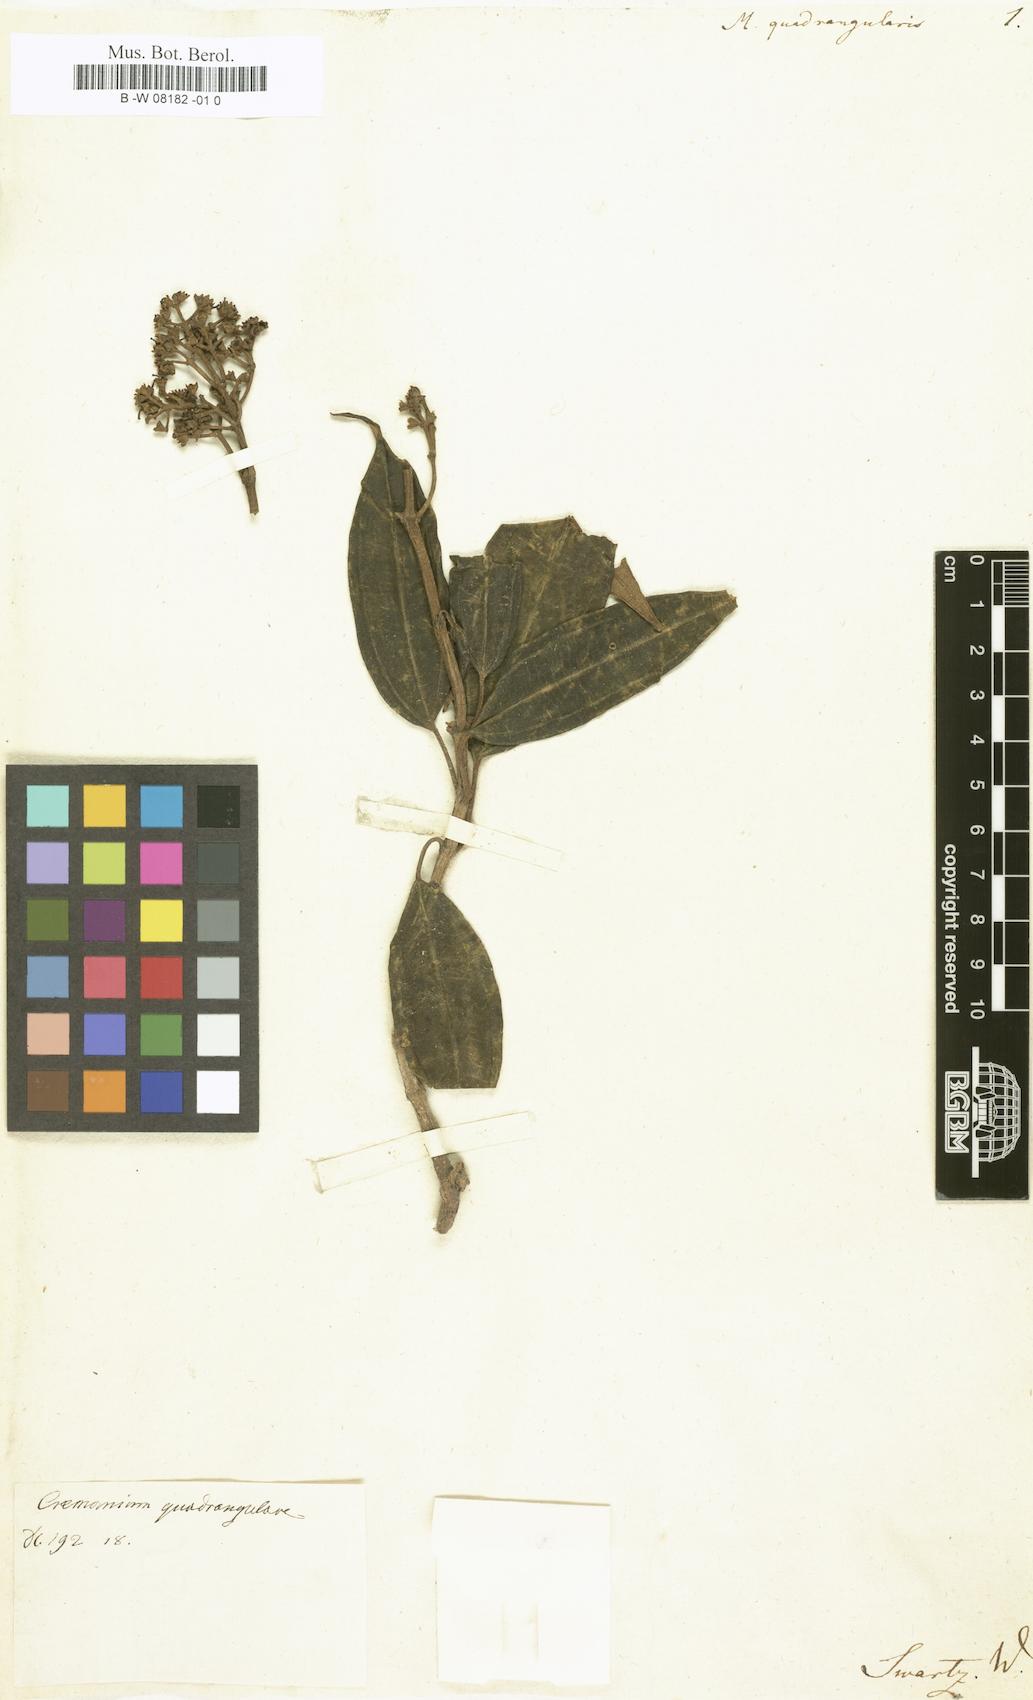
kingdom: Plantae
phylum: Tracheophyta
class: Magnoliopsida
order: Myrtales
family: Melastomataceae
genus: Melastoma
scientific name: Melastoma quadrangulare
